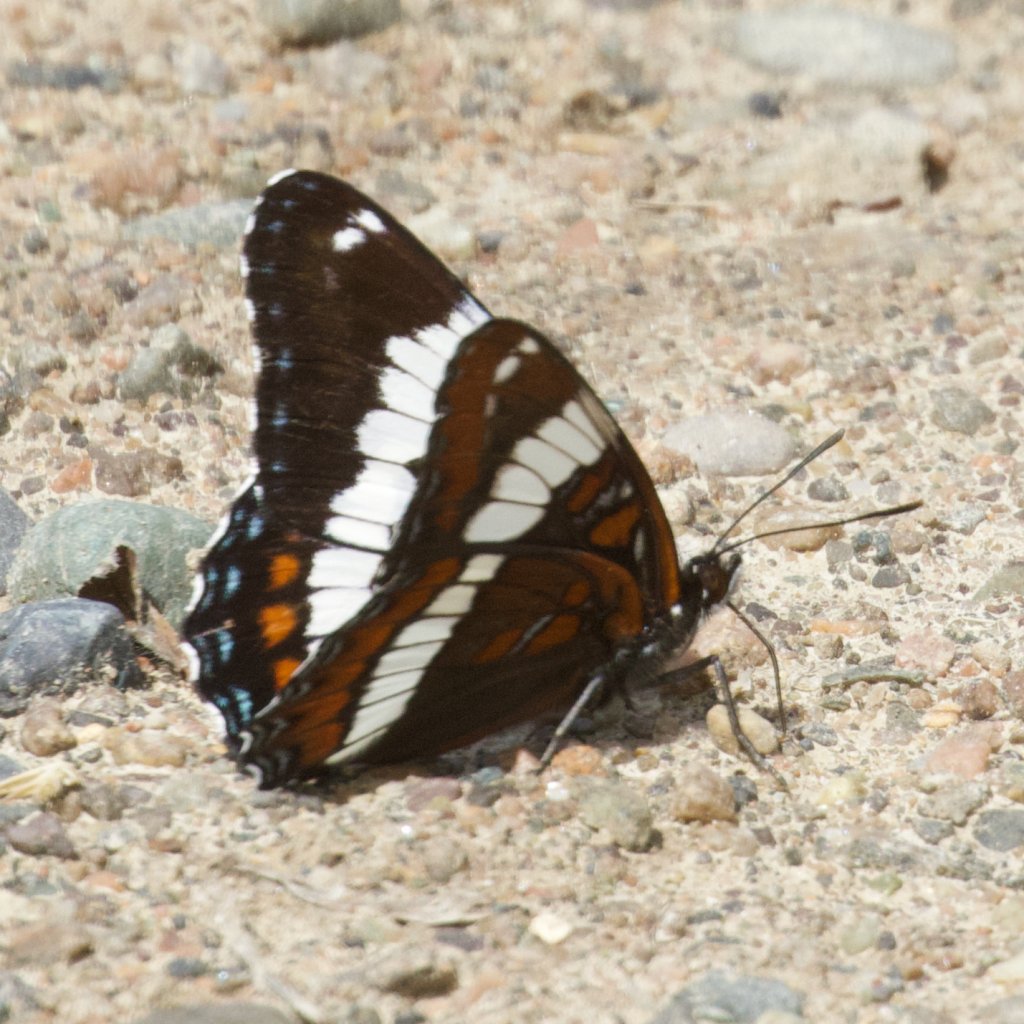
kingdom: Animalia
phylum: Arthropoda
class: Insecta
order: Lepidoptera
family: Nymphalidae
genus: Limenitis
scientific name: Limenitis arthemis
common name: Red-spotted Admiral
